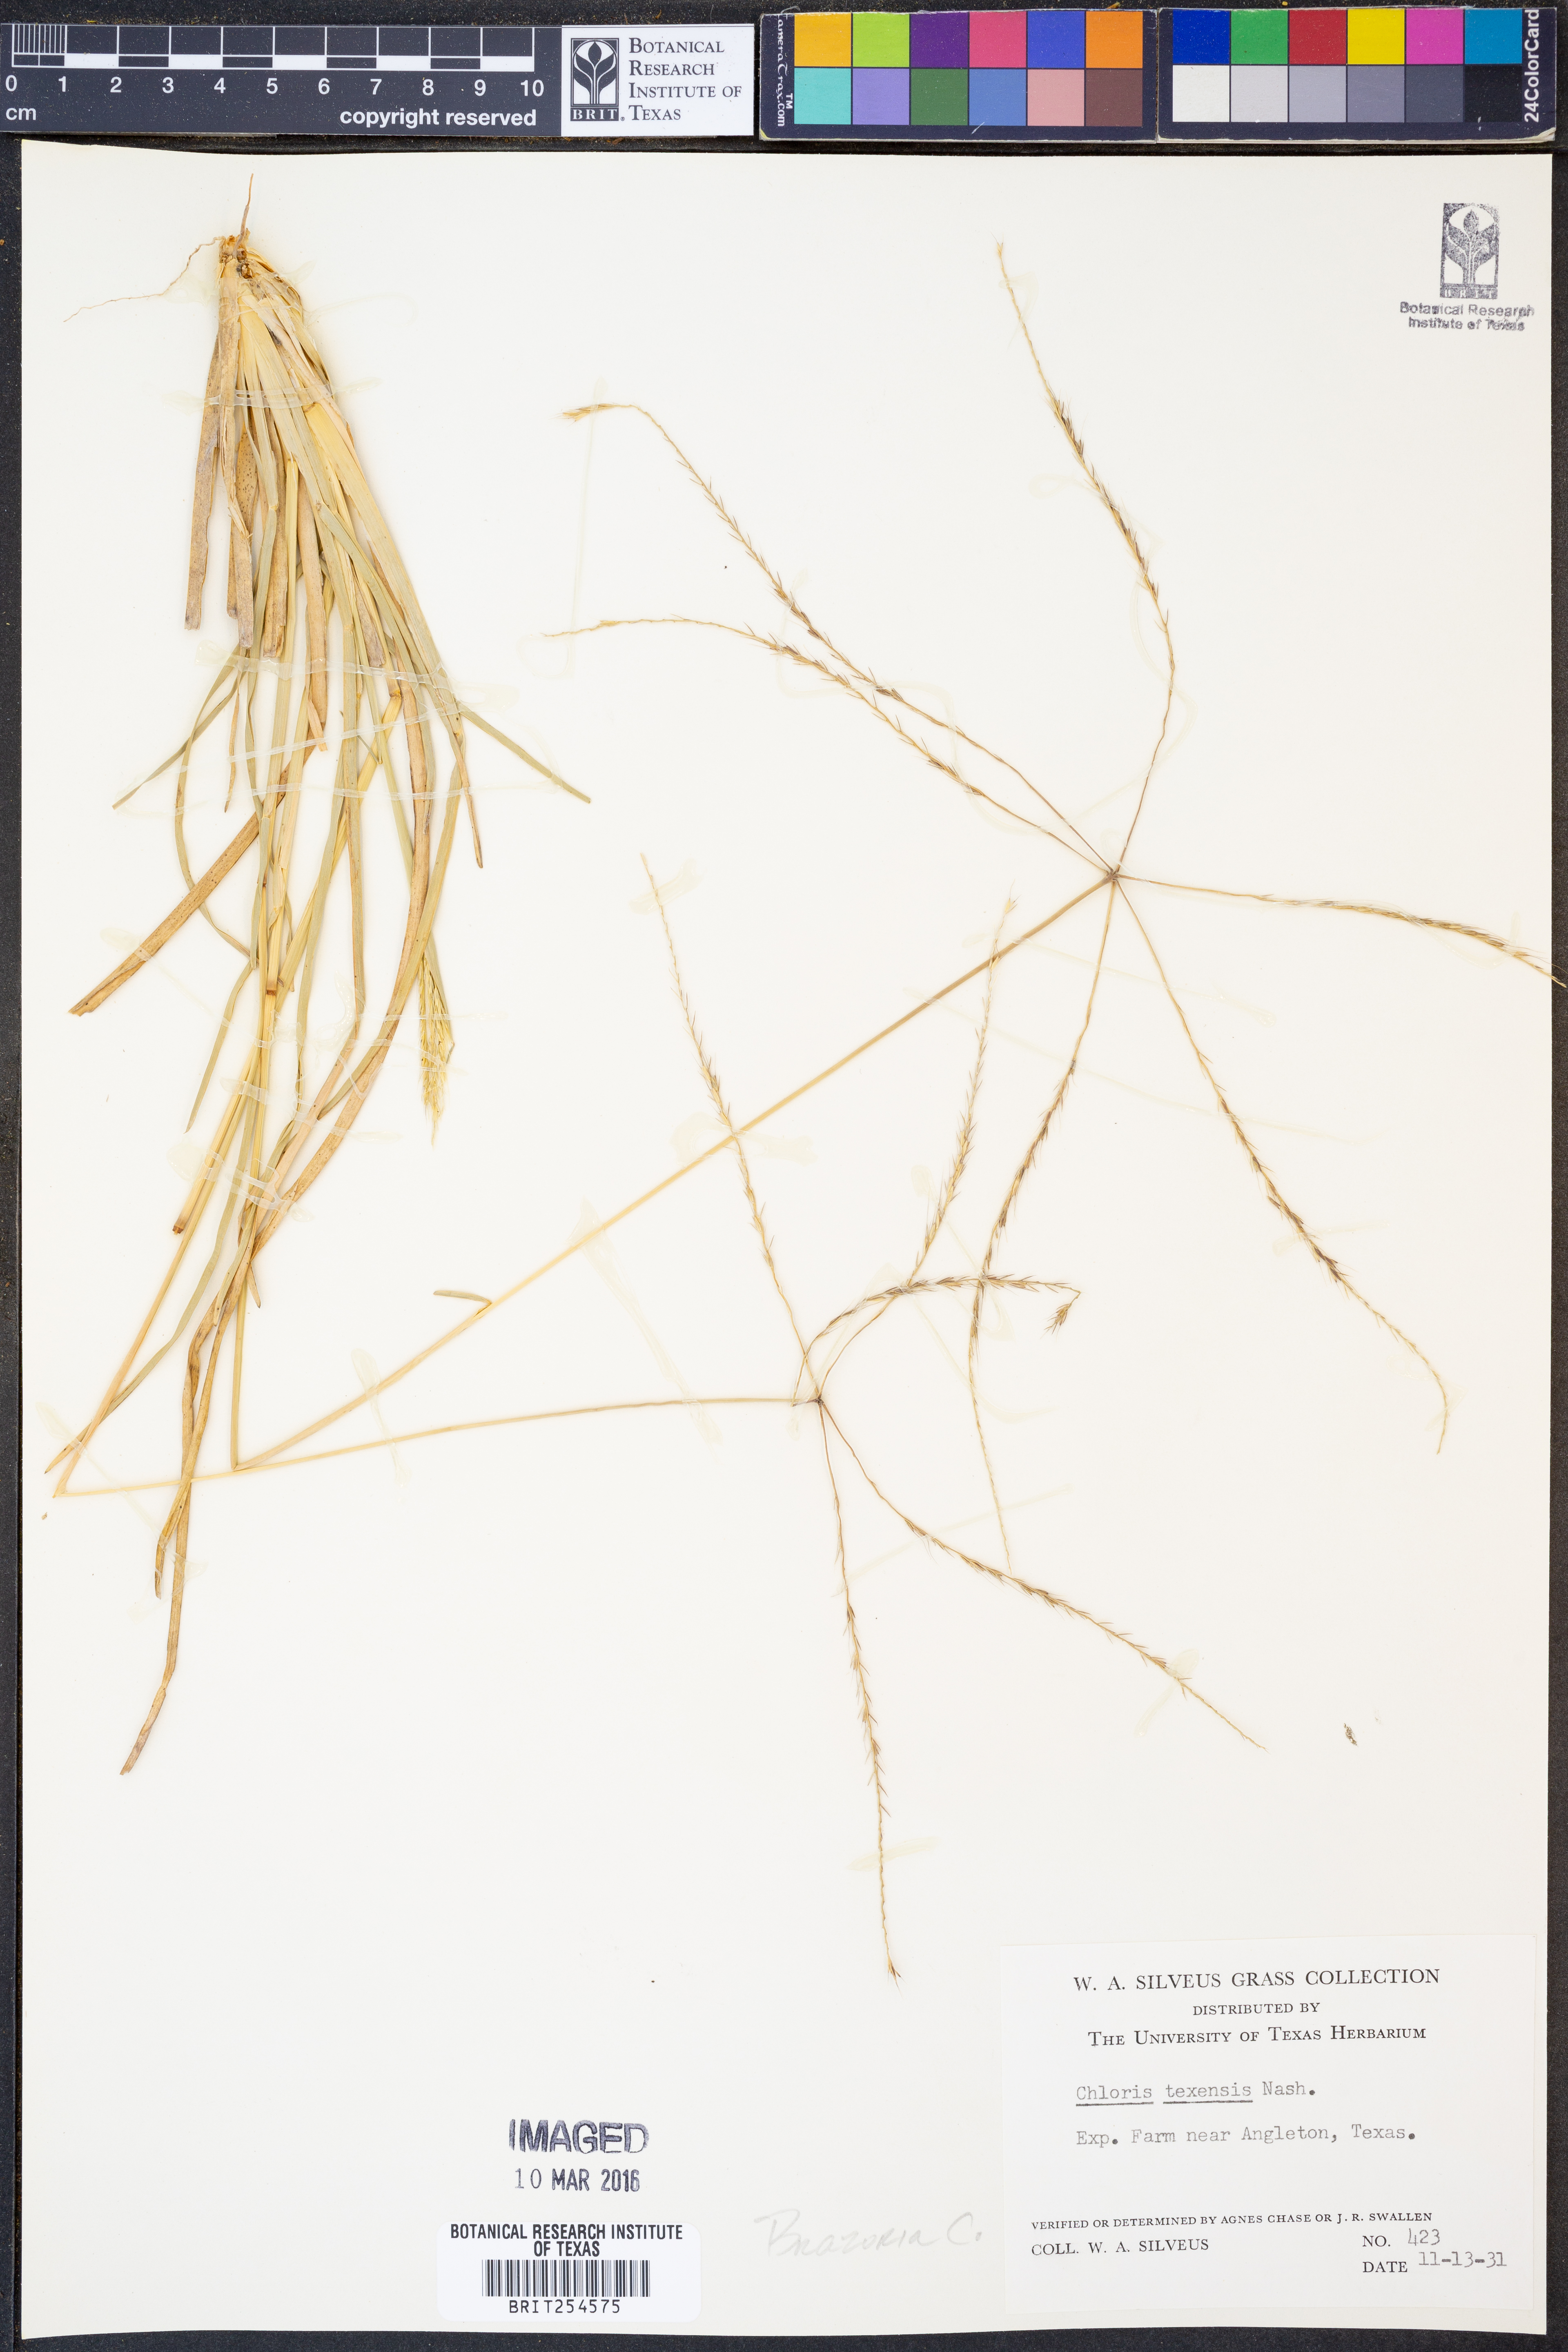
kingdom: Plantae
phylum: Tracheophyta
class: Liliopsida
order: Poales
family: Poaceae
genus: Chloris
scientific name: Chloris texensis
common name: Texas windmill grass
